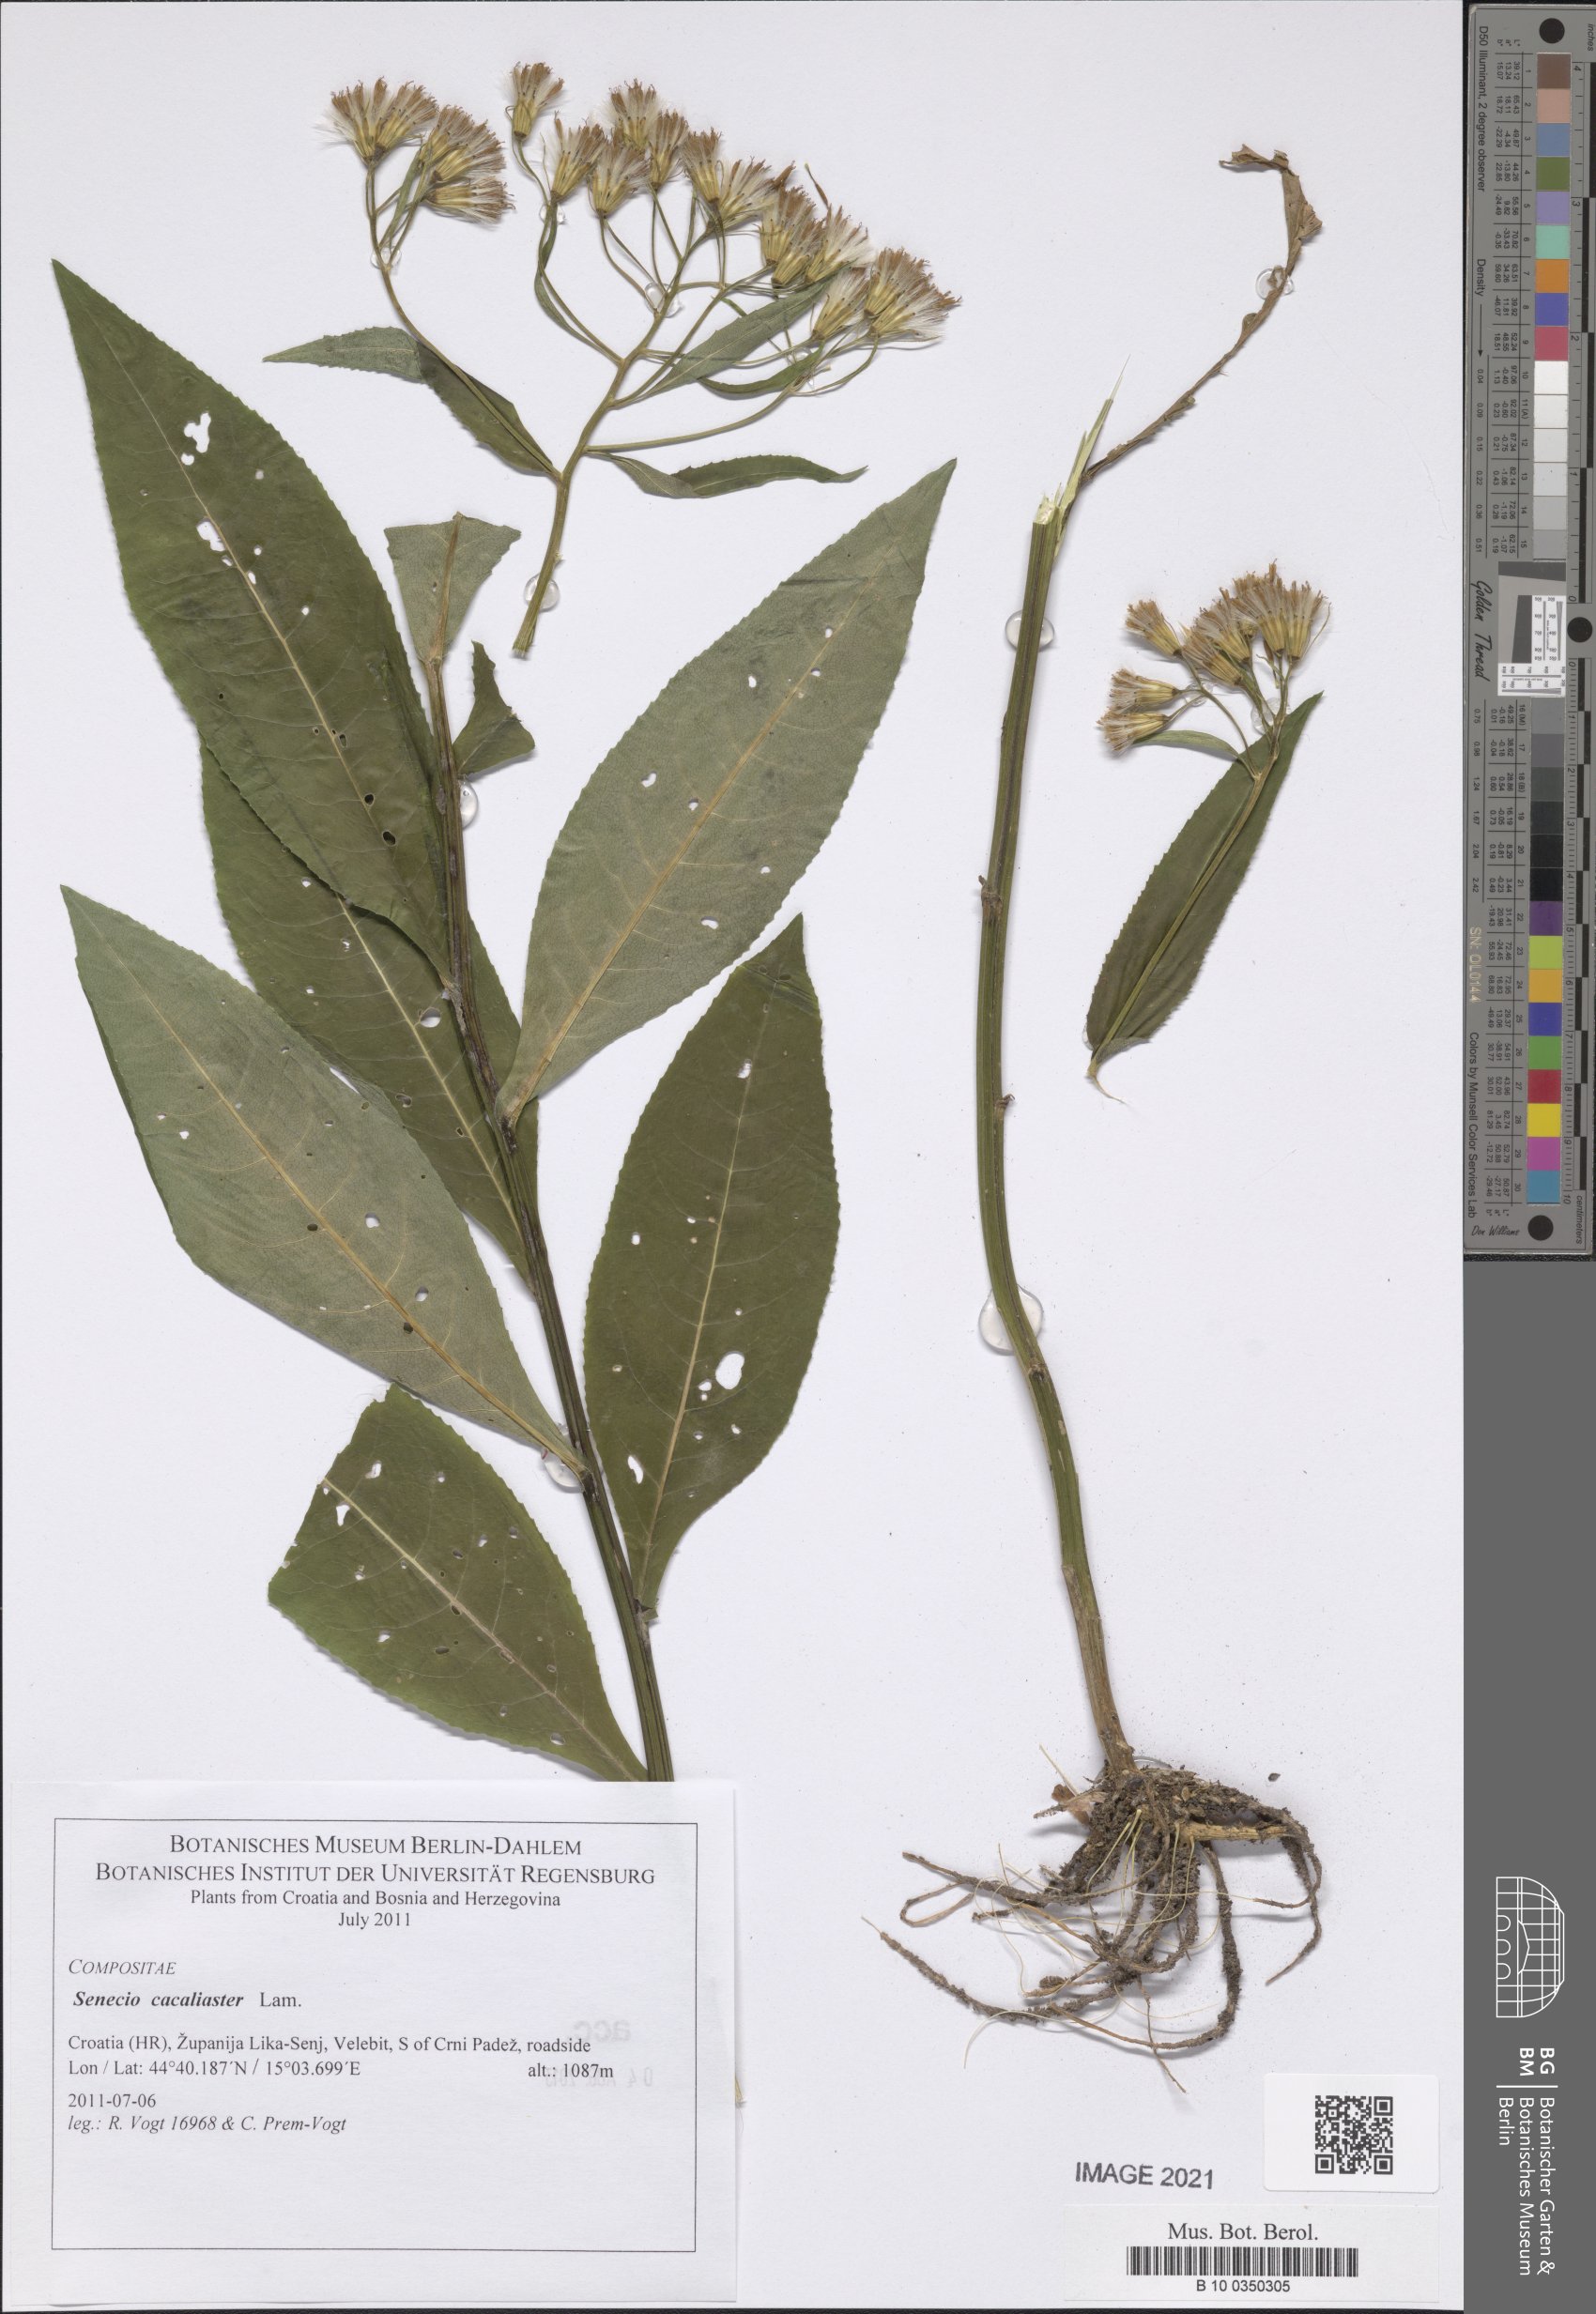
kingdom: Plantae
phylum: Tracheophyta
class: Magnoliopsida
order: Asterales
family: Asteraceae
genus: Senecio
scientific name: Senecio cacaliaster
